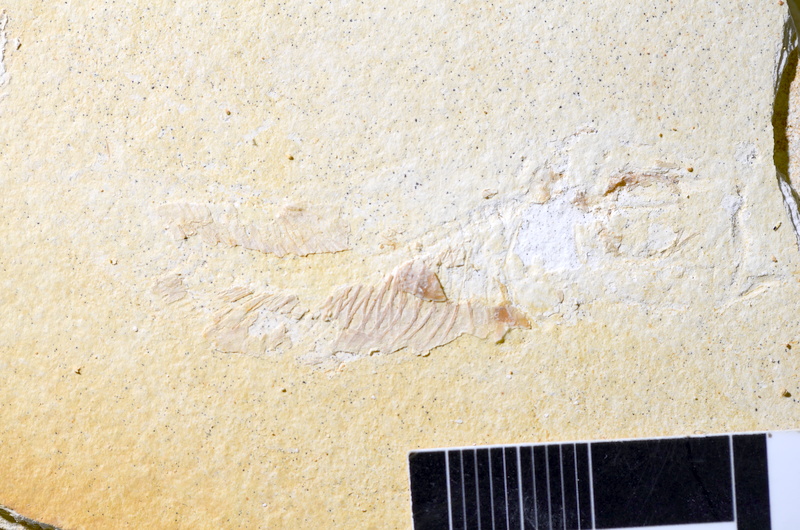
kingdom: Animalia
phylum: Chordata
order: Salmoniformes
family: Orthogonikleithridae
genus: Orthogonikleithrus
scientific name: Orthogonikleithrus hoelli
